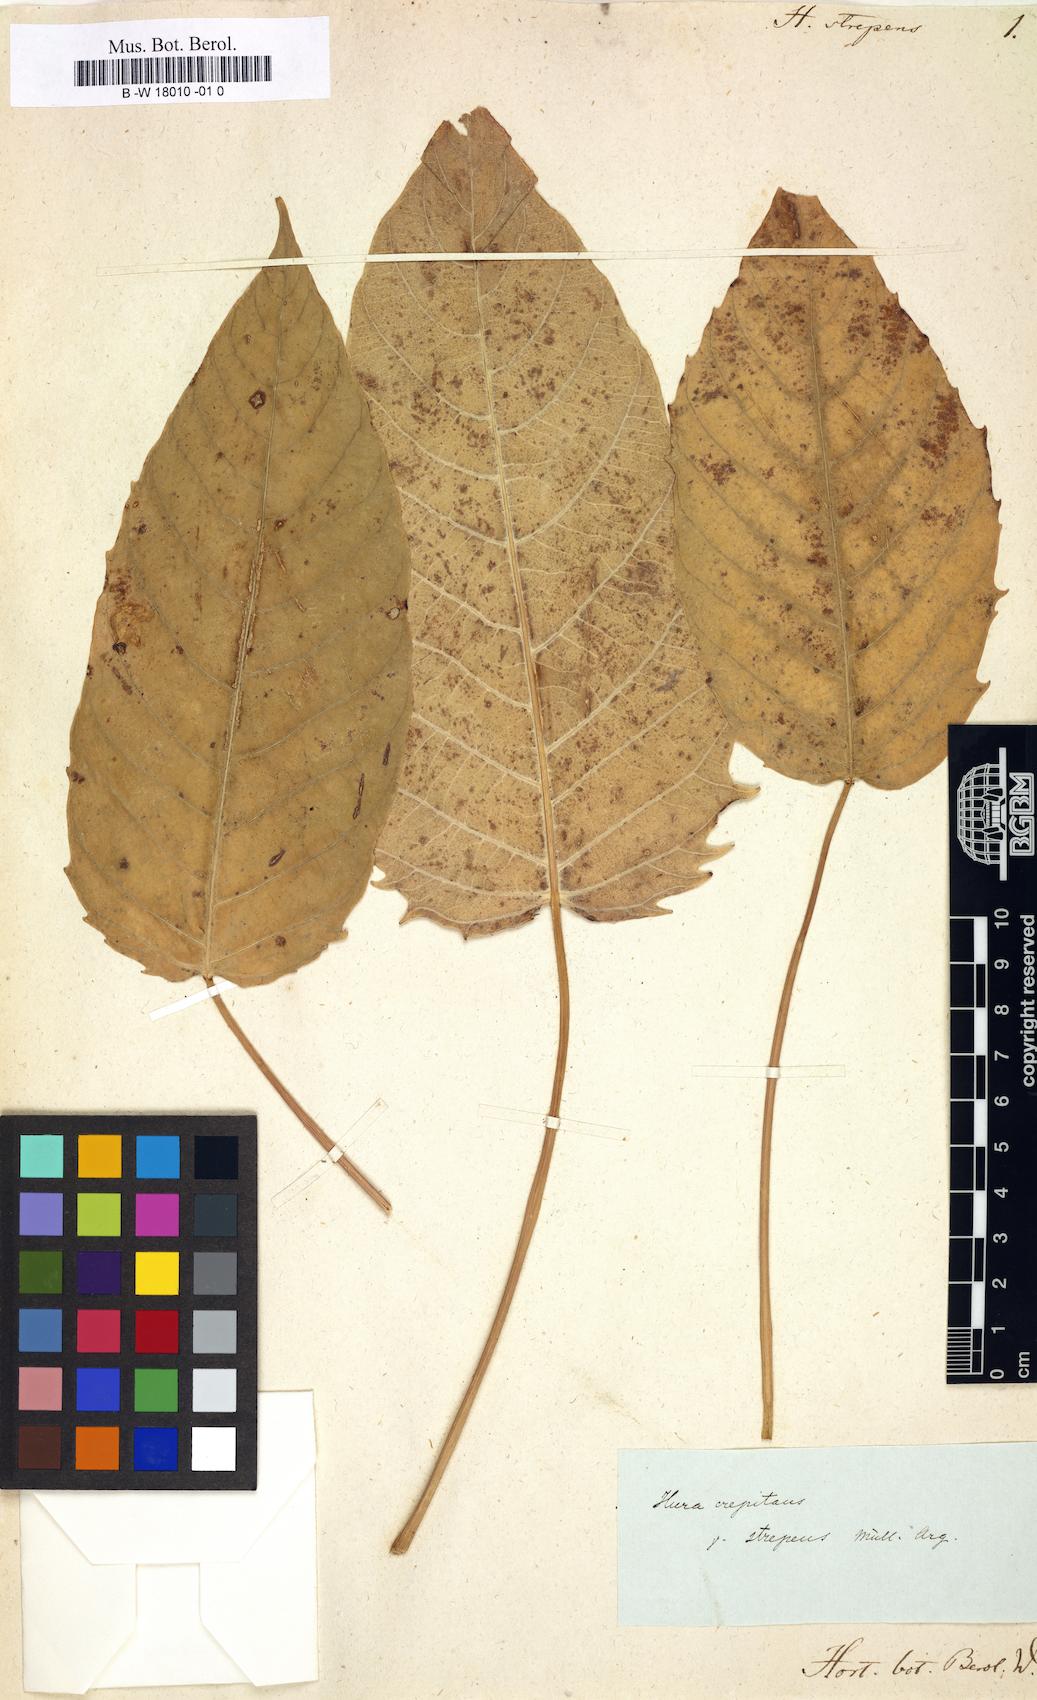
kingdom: Plantae
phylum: Tracheophyta
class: Magnoliopsida
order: Malpighiales
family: Euphorbiaceae
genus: Hura
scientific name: Hura crepitans
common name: Sandboxtree
